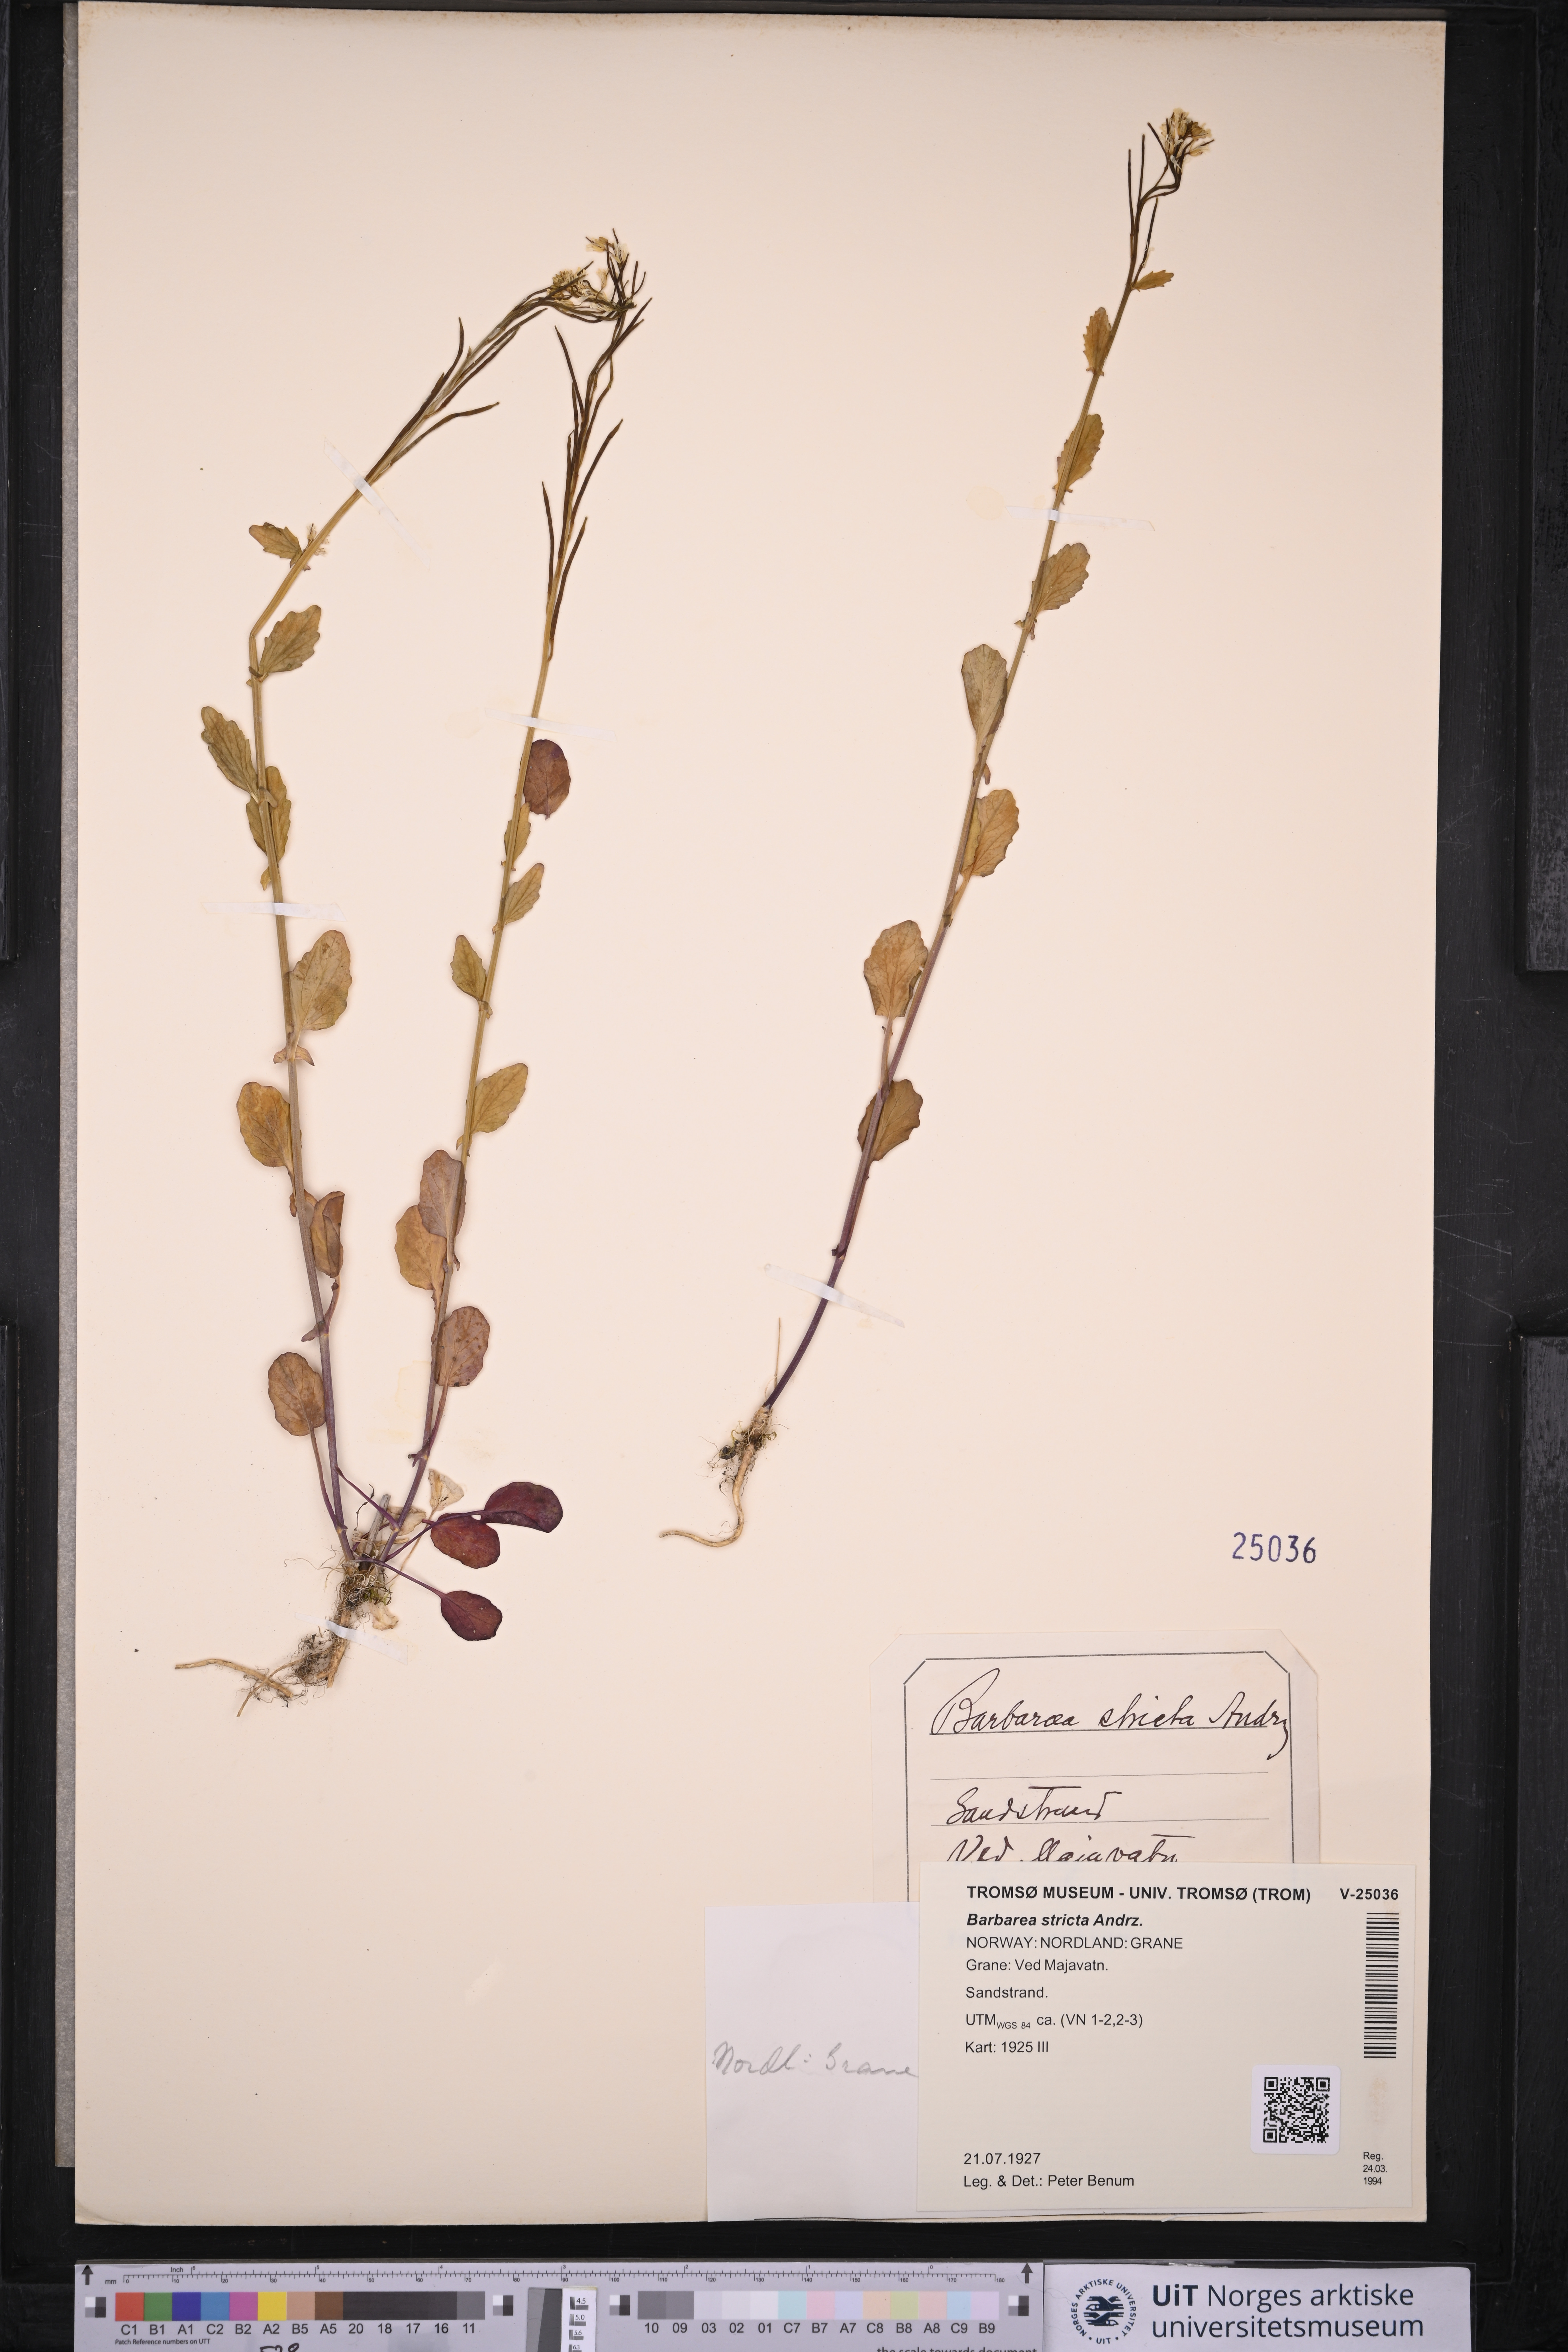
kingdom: Plantae
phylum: Tracheophyta
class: Magnoliopsida
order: Brassicales
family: Brassicaceae
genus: Barbarea
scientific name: Barbarea stricta
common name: Small-flowered winter-cress
